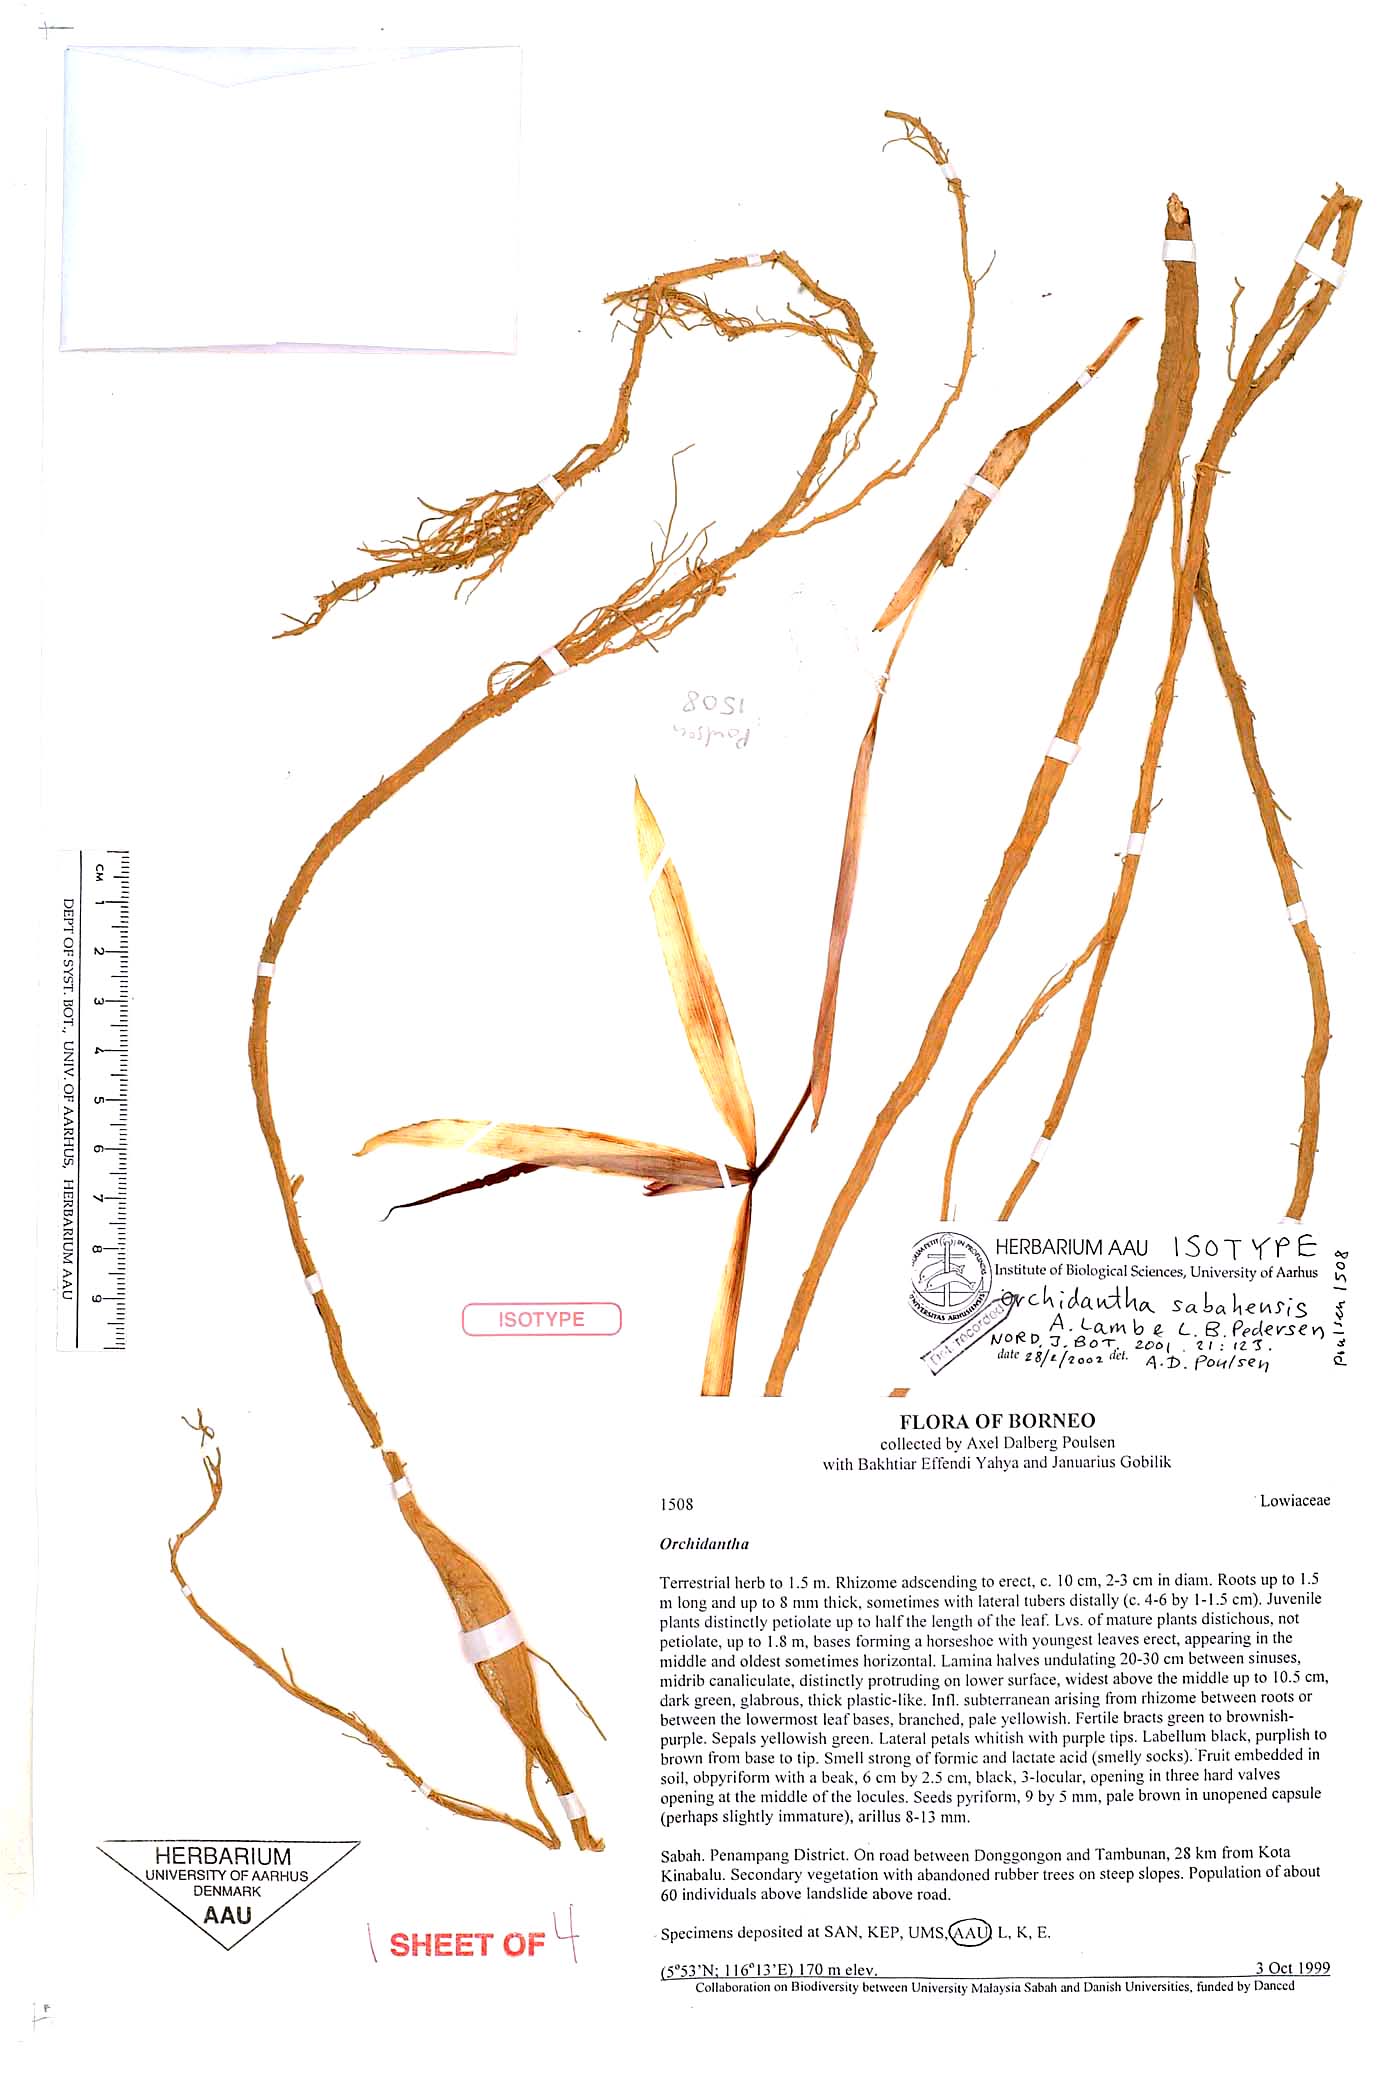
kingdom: Plantae
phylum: Tracheophyta
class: Liliopsida
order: Zingiberales
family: Lowiaceae
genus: Orchidantha
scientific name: Orchidantha sabahensis
